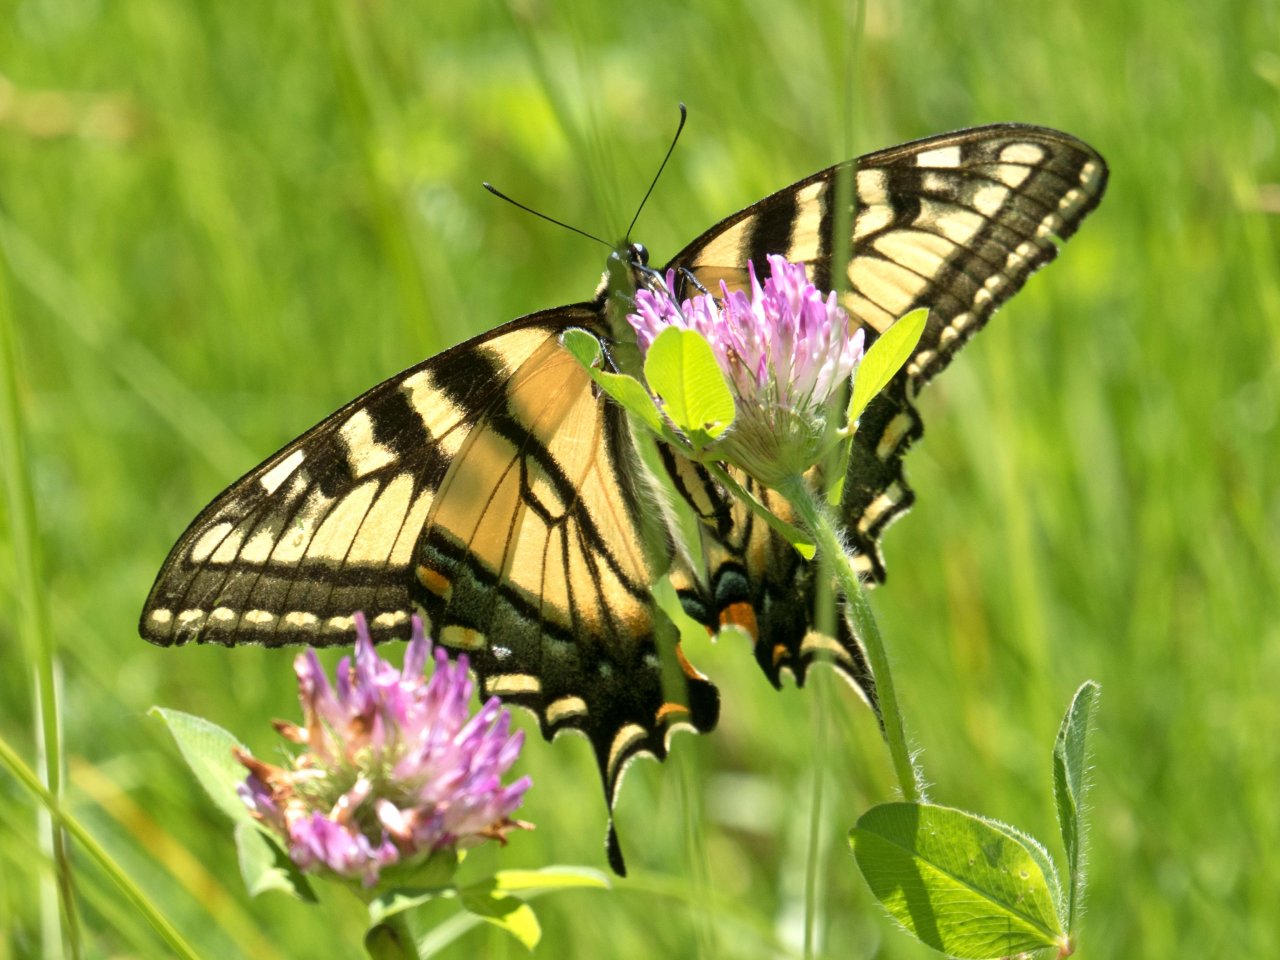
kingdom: Animalia
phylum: Arthropoda
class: Insecta
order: Lepidoptera
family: Papilionidae
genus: Pterourus
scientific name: Pterourus glaucus
